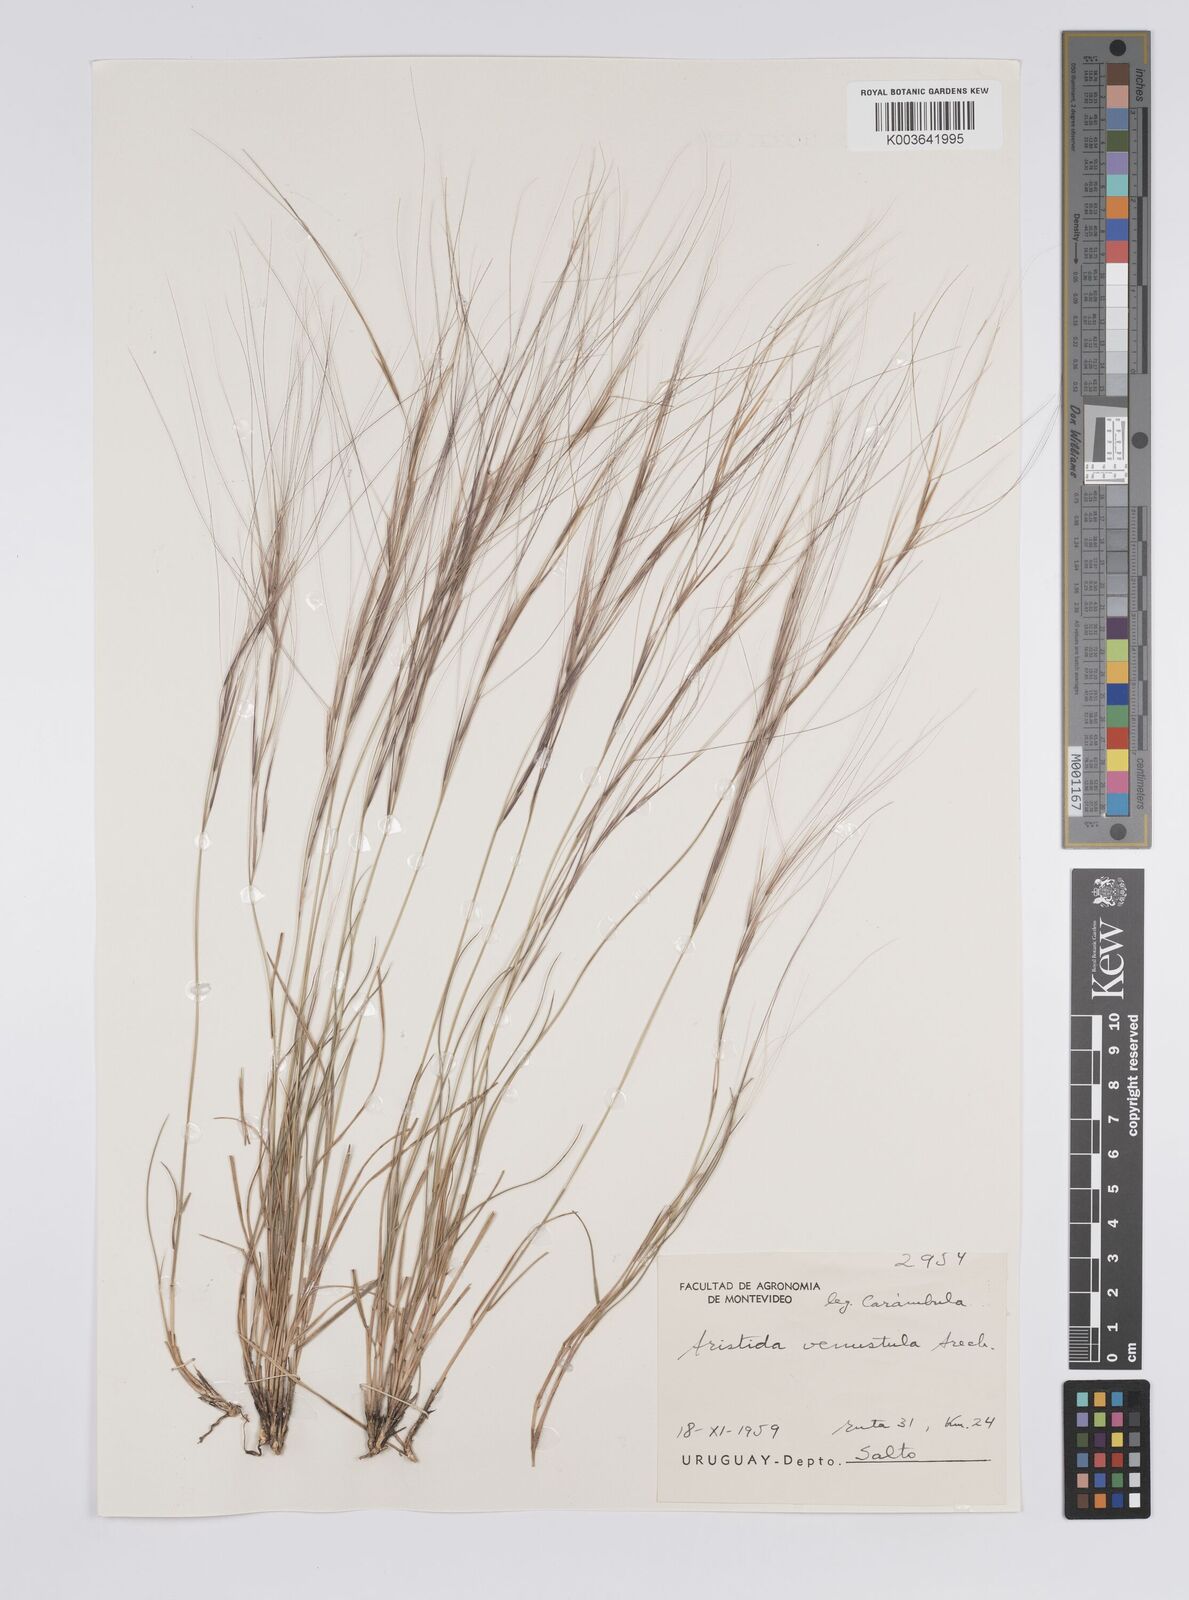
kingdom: Plantae
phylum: Tracheophyta
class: Liliopsida
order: Poales
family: Poaceae
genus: Aristida
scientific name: Aristida venustula
